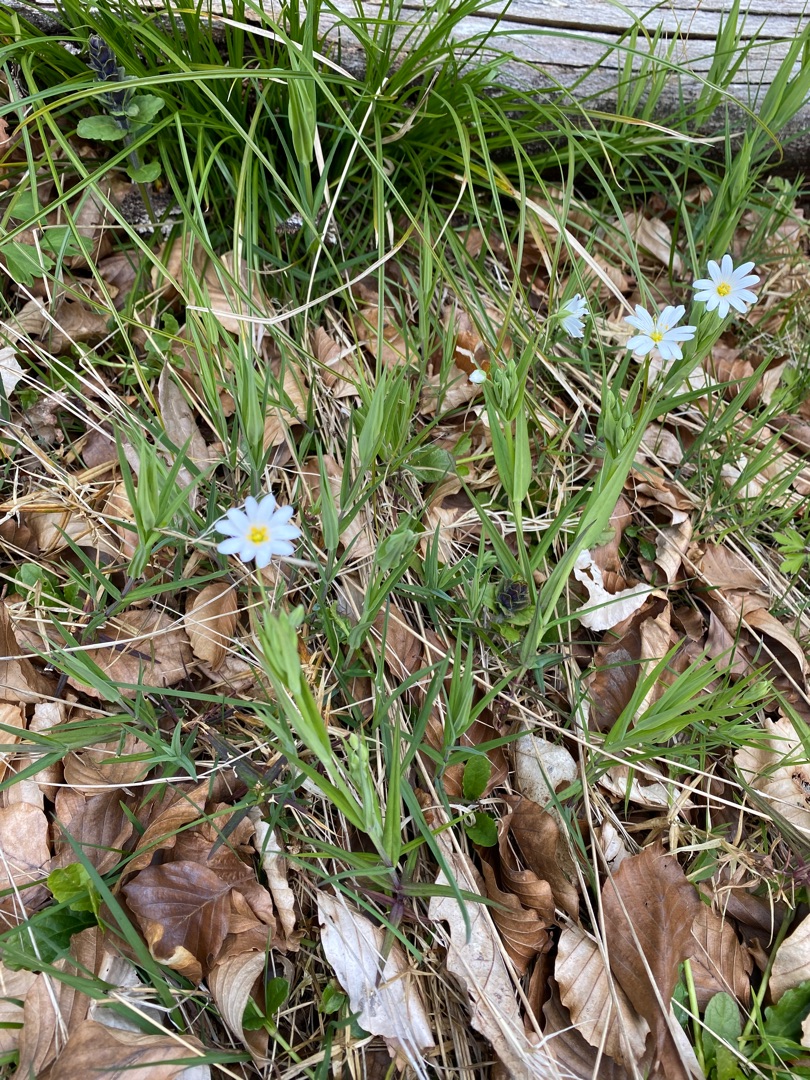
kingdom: Plantae
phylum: Tracheophyta
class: Magnoliopsida
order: Caryophyllales
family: Caryophyllaceae
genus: Rabelera
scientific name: Rabelera holostea
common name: Stor fladstjerne
